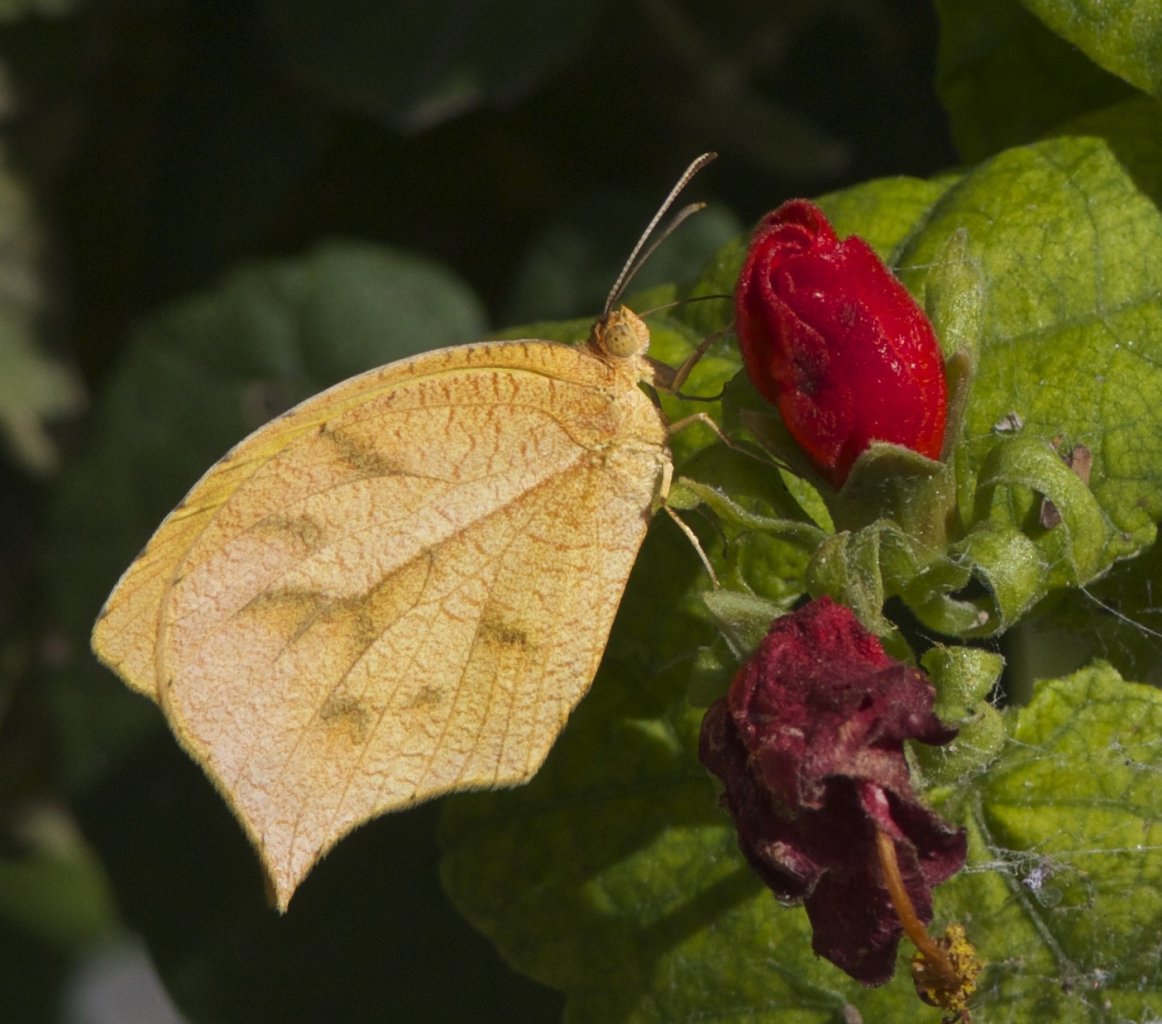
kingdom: Animalia
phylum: Arthropoda
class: Insecta
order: Lepidoptera
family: Pieridae
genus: Pyrisitia
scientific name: Pyrisitia proterpia
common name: Tailed Orange
